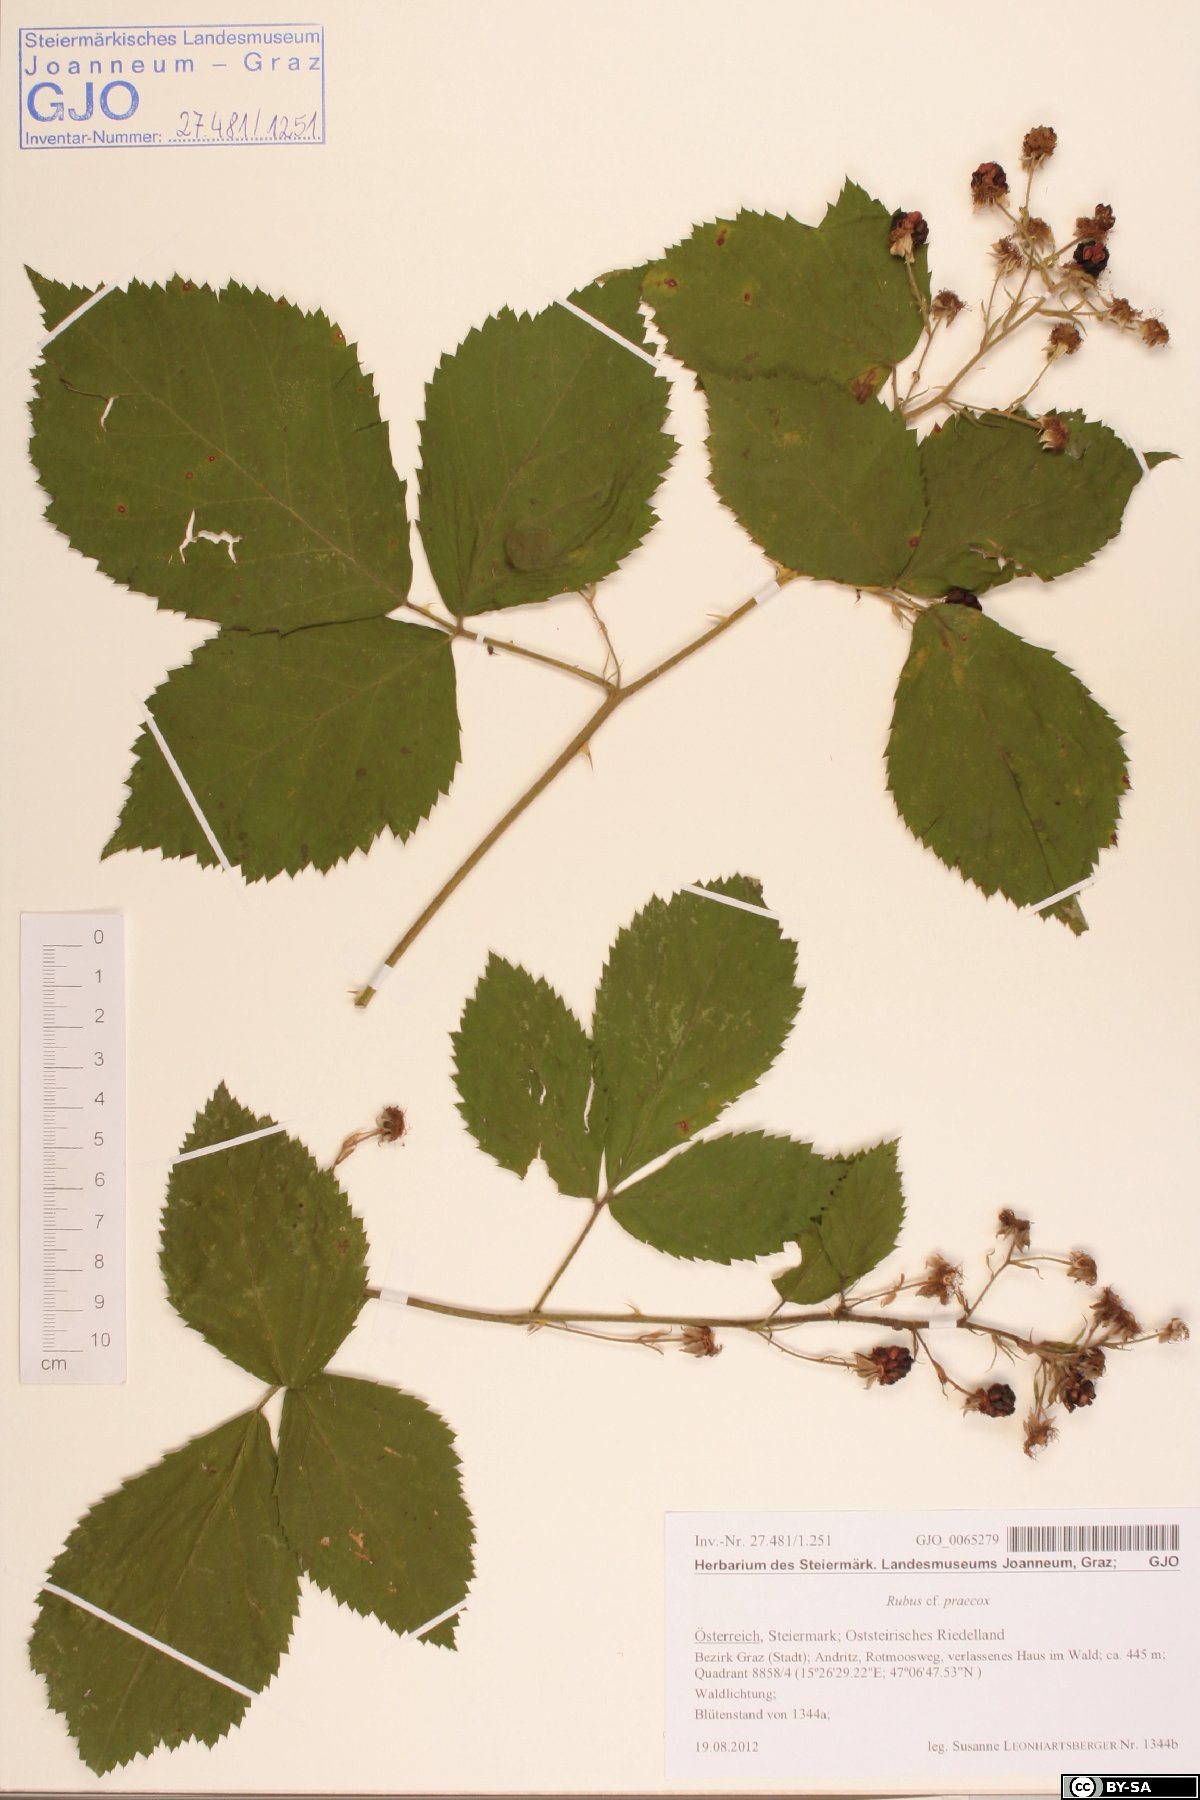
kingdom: Plantae
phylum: Tracheophyta
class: Magnoliopsida
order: Rosales
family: Rosaceae
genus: Rubus
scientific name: Rubus sulcatus
